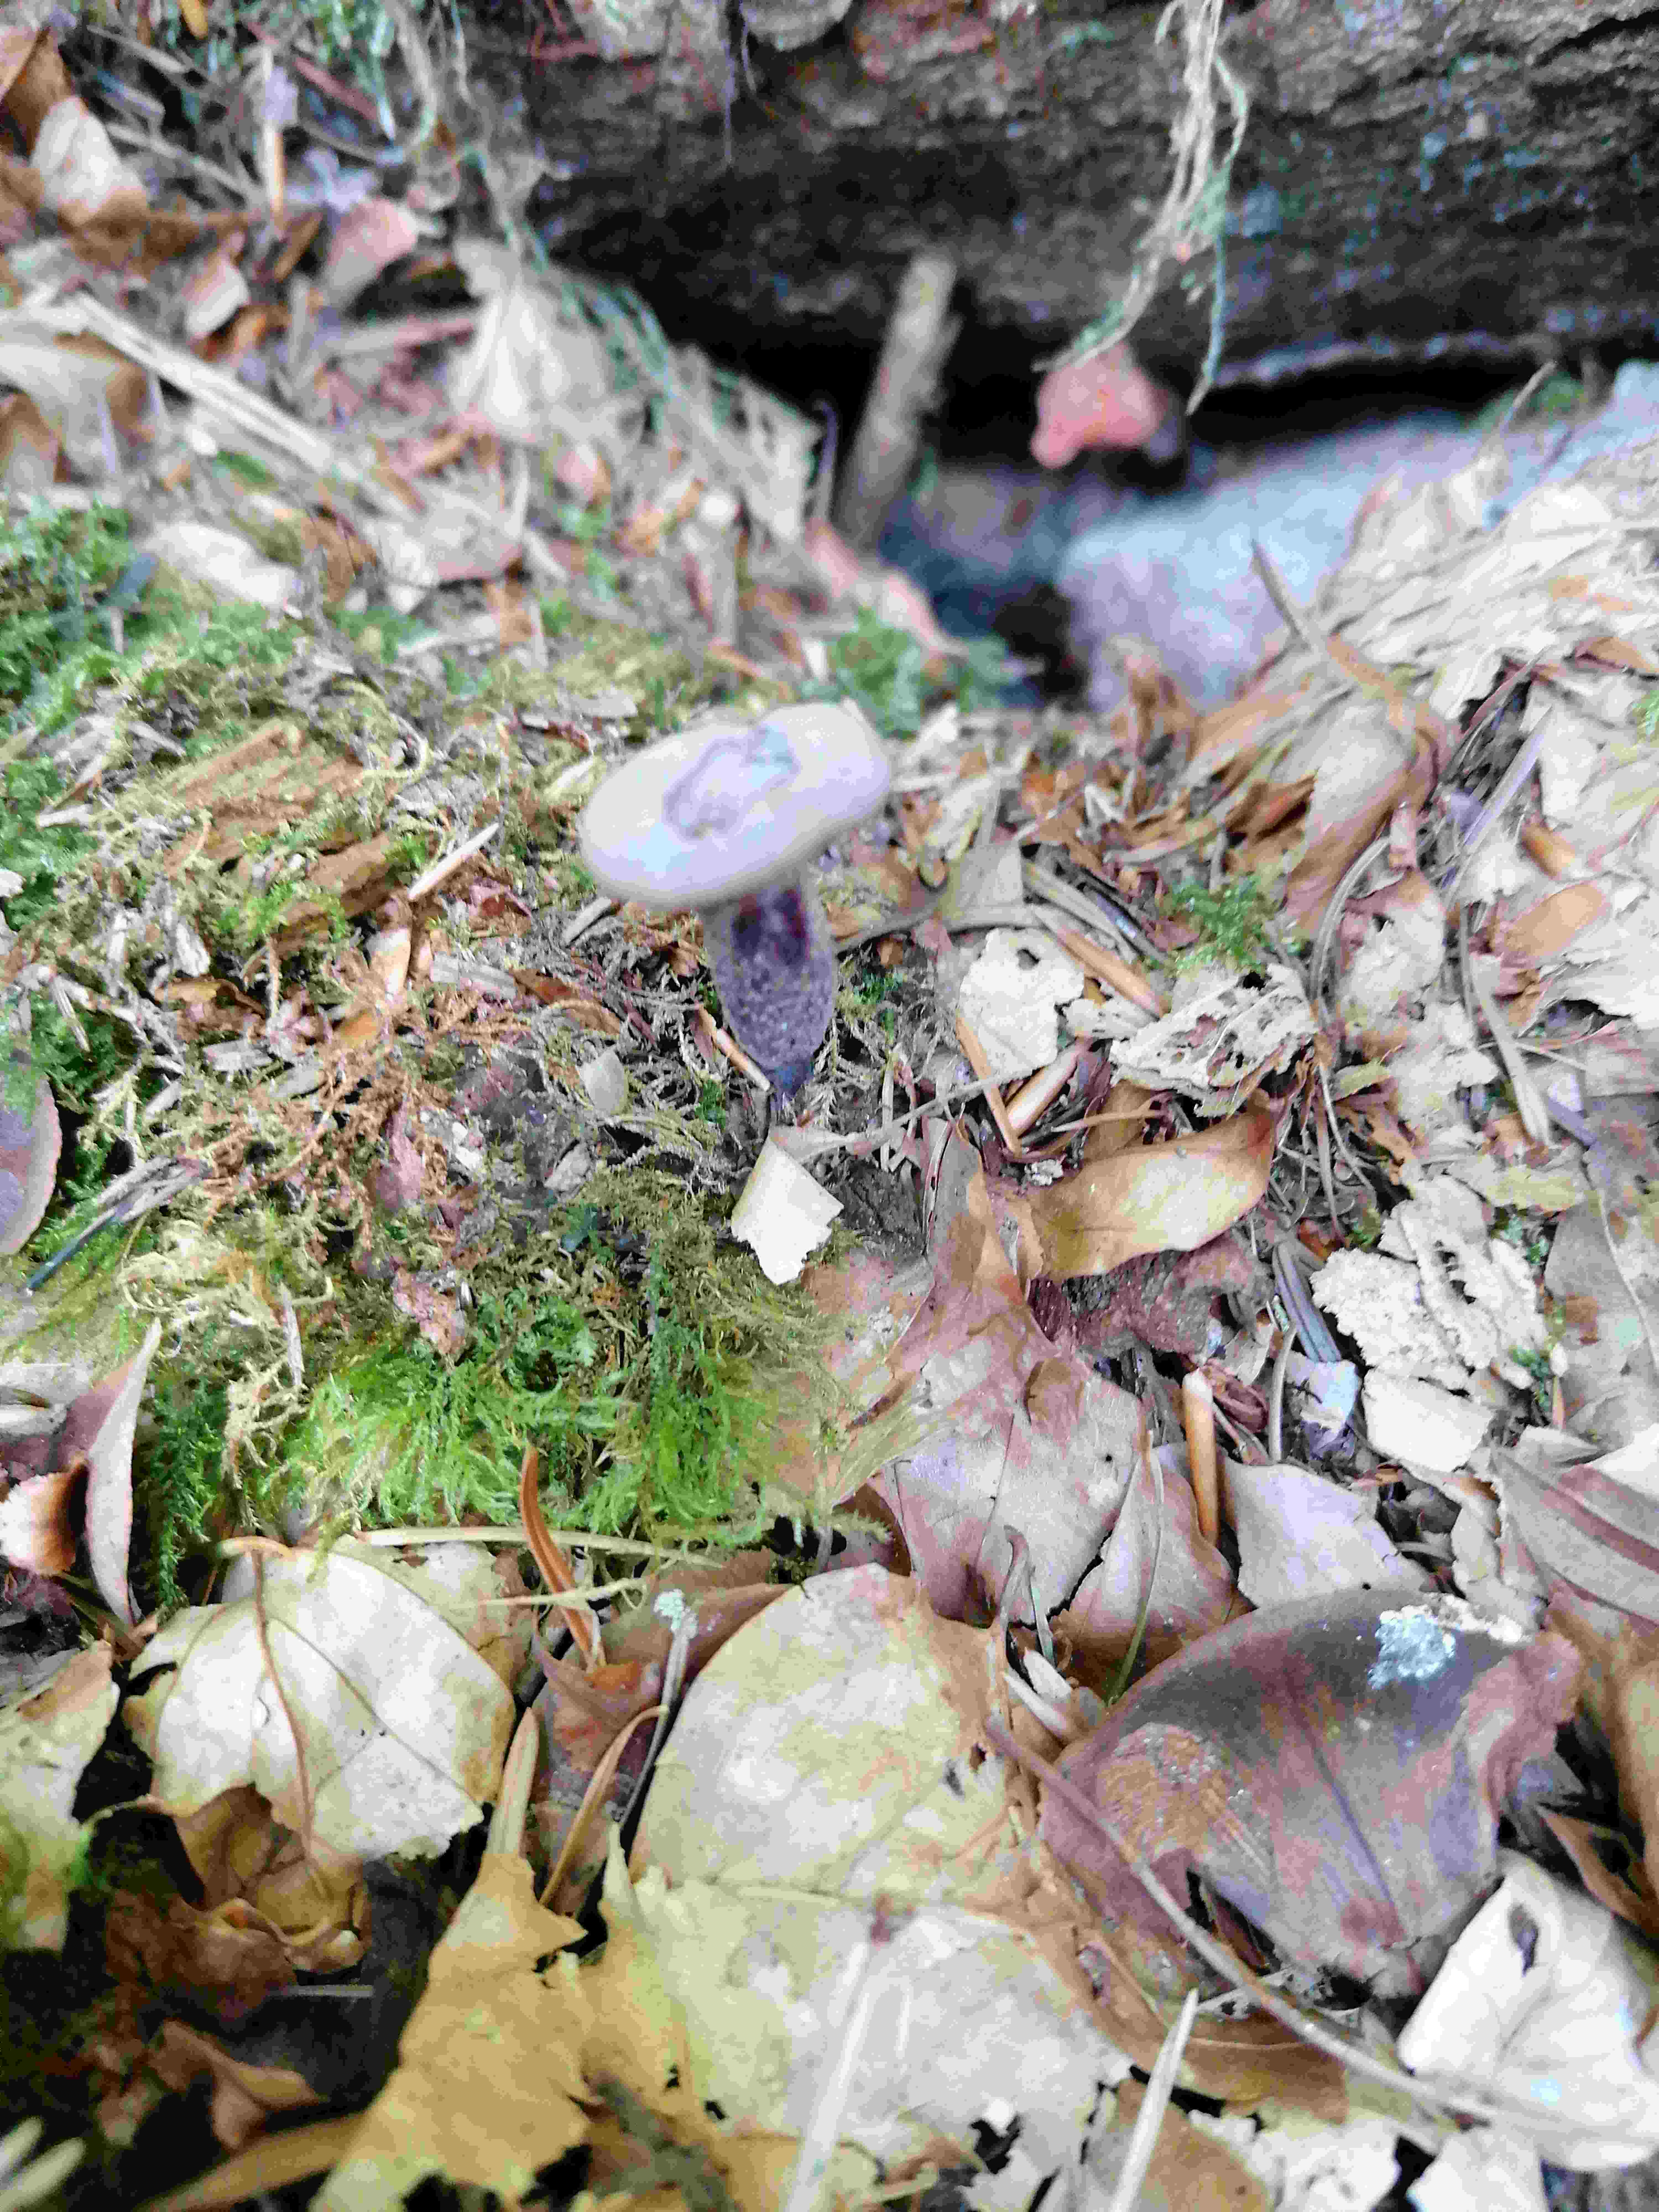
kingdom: Fungi
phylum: Basidiomycota
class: Agaricomycetes
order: Agaricales
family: Hydnangiaceae
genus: Laccaria
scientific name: Laccaria amethystina
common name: violet ametysthat
